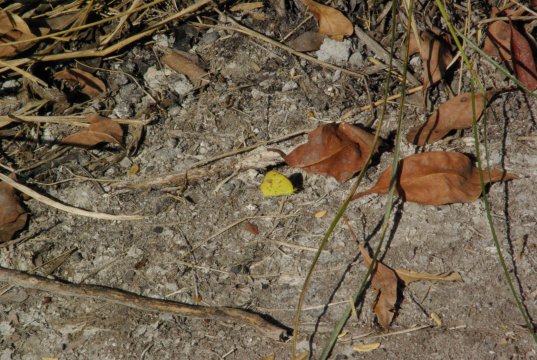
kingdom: Animalia
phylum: Arthropoda
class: Insecta
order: Lepidoptera
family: Pieridae
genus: Pyrisitia
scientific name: Pyrisitia lisa
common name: Little Yellow
